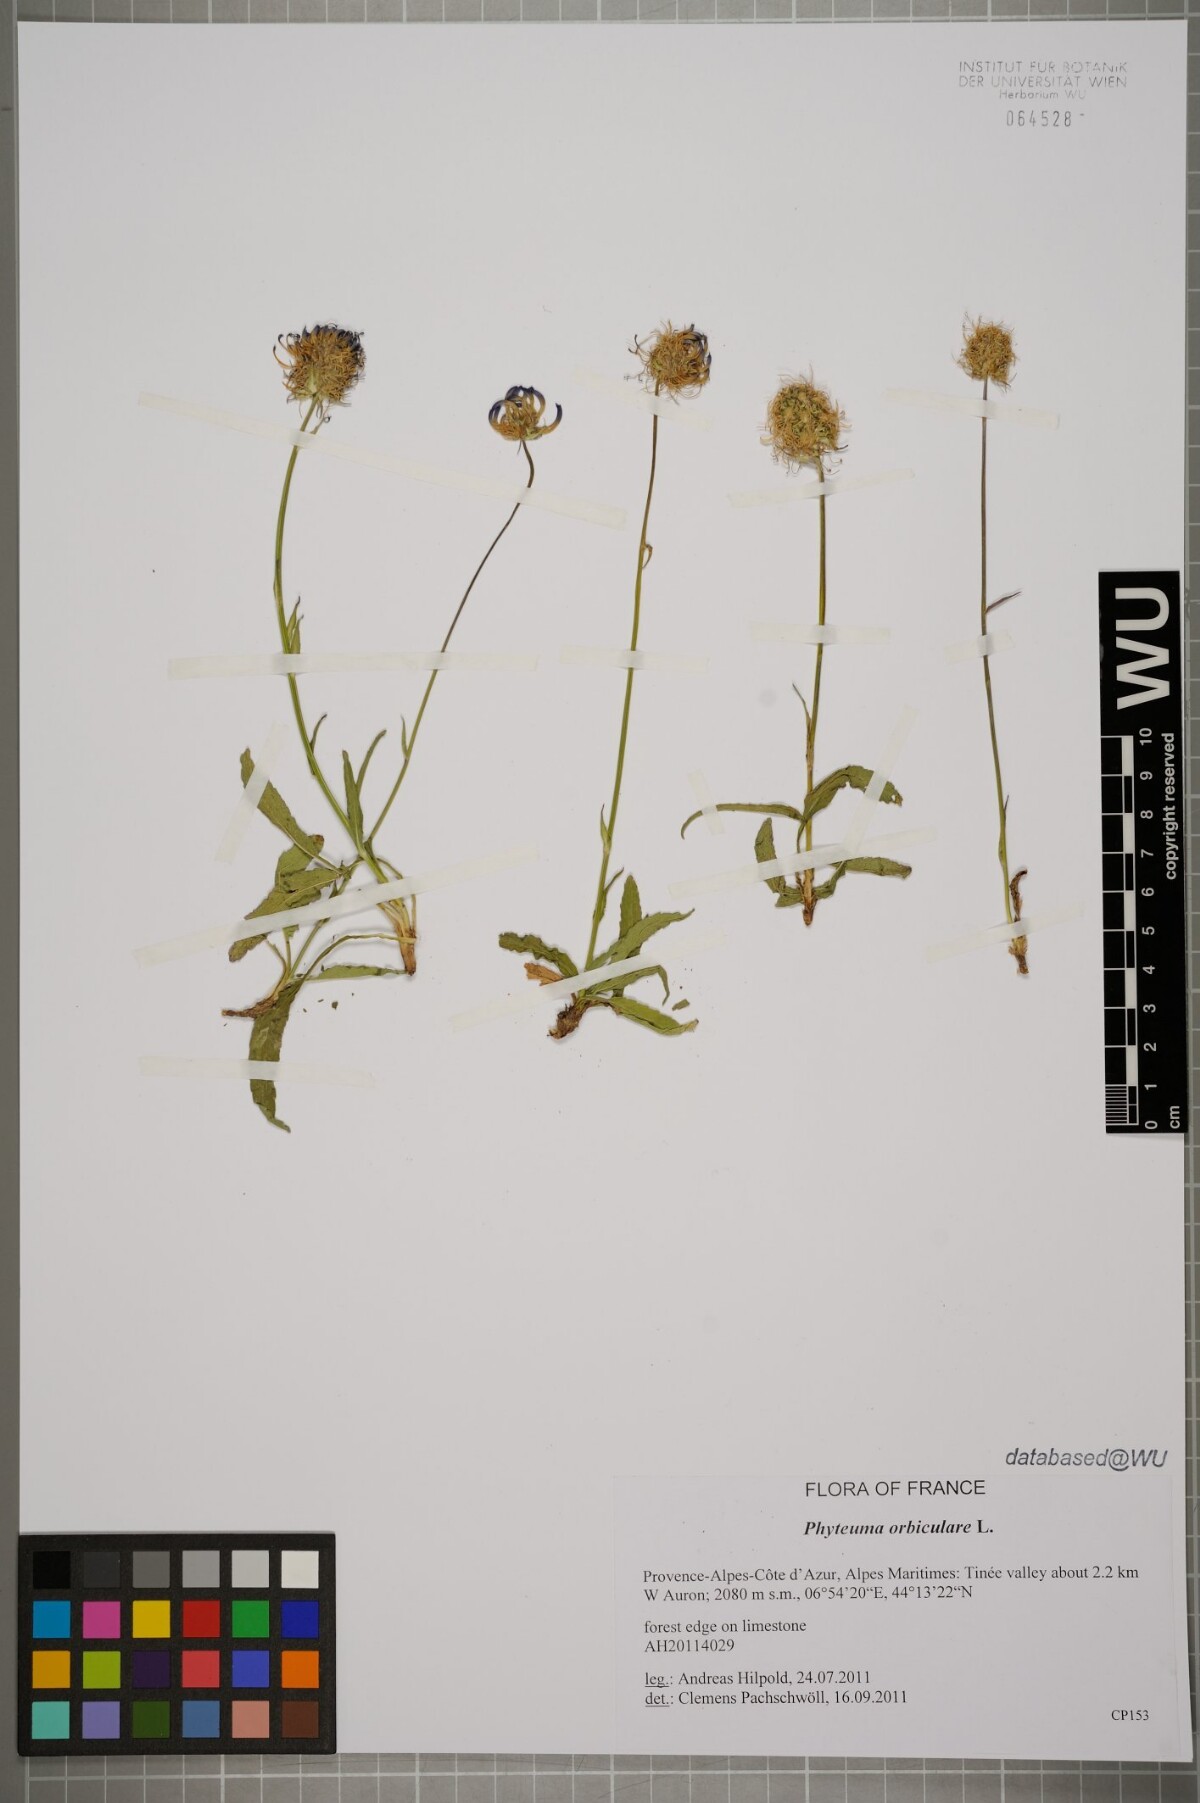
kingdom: Plantae
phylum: Tracheophyta
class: Magnoliopsida
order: Asterales
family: Campanulaceae
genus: Phyteuma
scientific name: Phyteuma orbiculare
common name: Round-headed rampion
